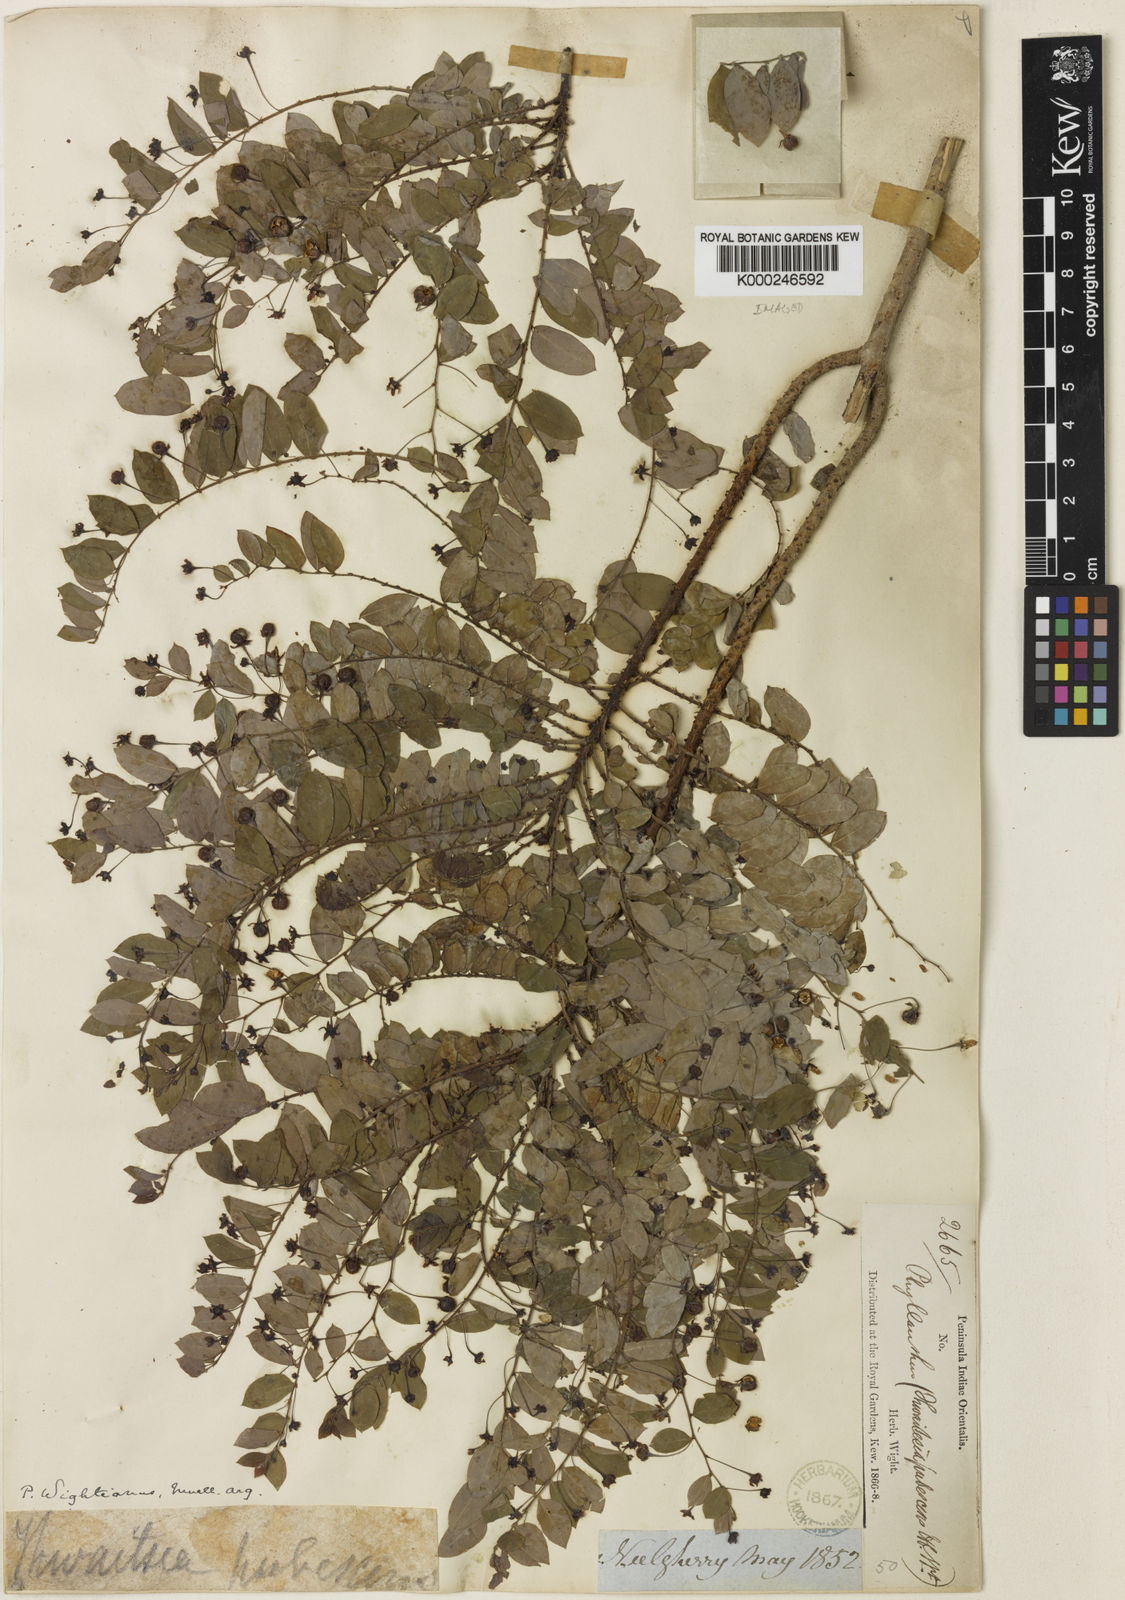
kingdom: Plantae
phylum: Tracheophyta
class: Magnoliopsida
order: Malpighiales
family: Phyllanthaceae
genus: Phyllanthus
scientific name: Phyllanthus
